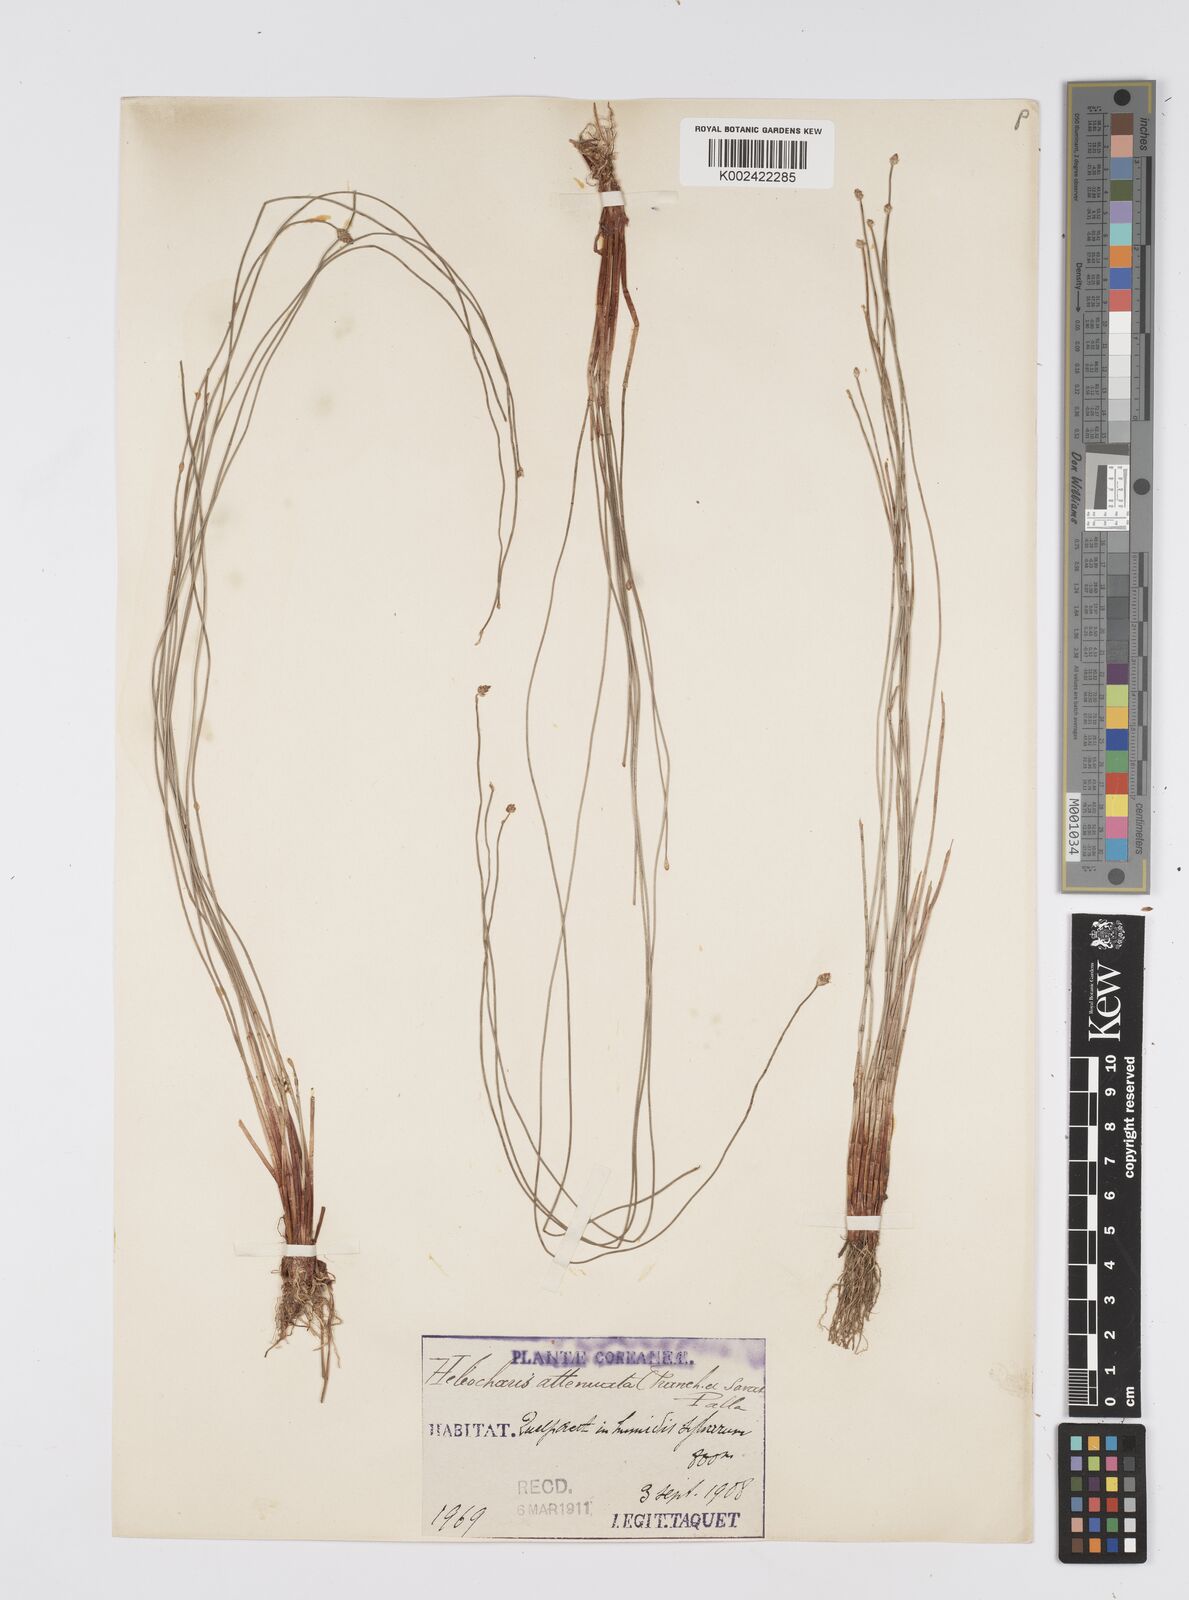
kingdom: Plantae
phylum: Tracheophyta
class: Liliopsida
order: Poales
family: Cyperaceae
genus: Eleocharis
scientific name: Eleocharis attenuata
